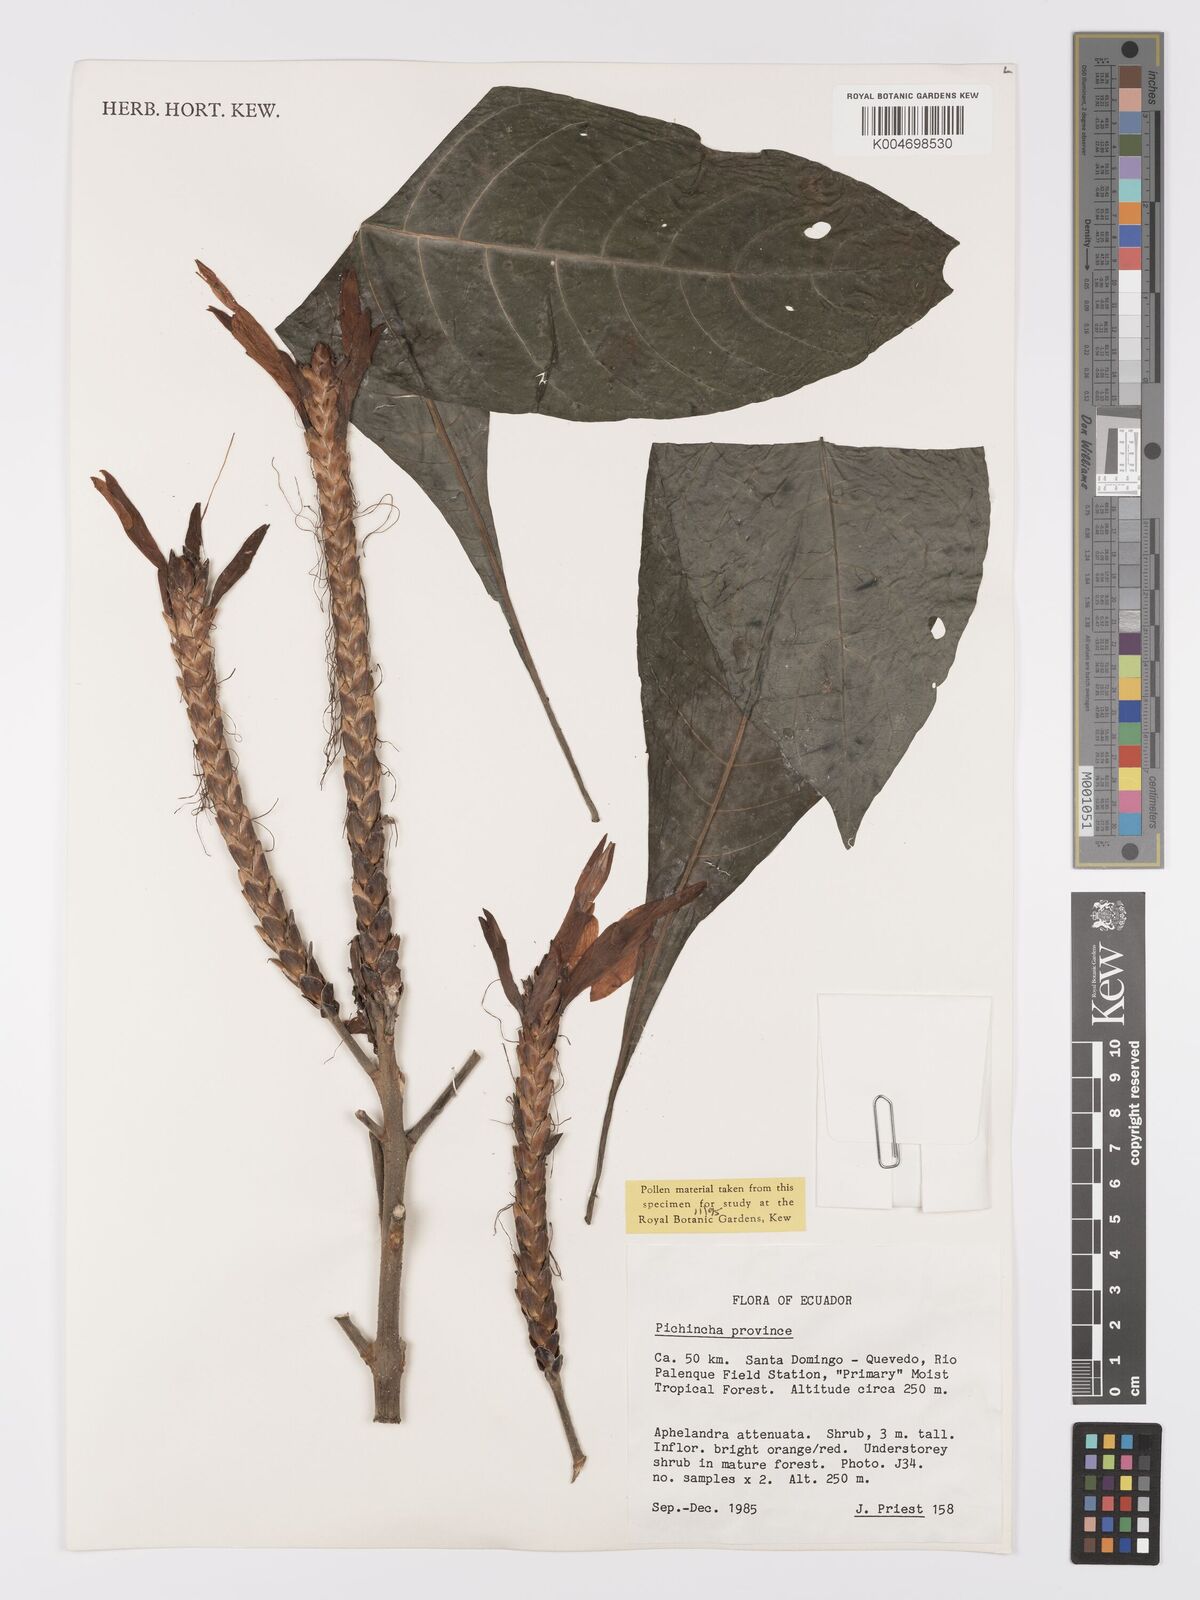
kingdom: Plantae
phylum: Tracheophyta
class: Magnoliopsida
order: Lamiales
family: Acanthaceae
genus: Aphelandra
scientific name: Aphelandra attenuata
